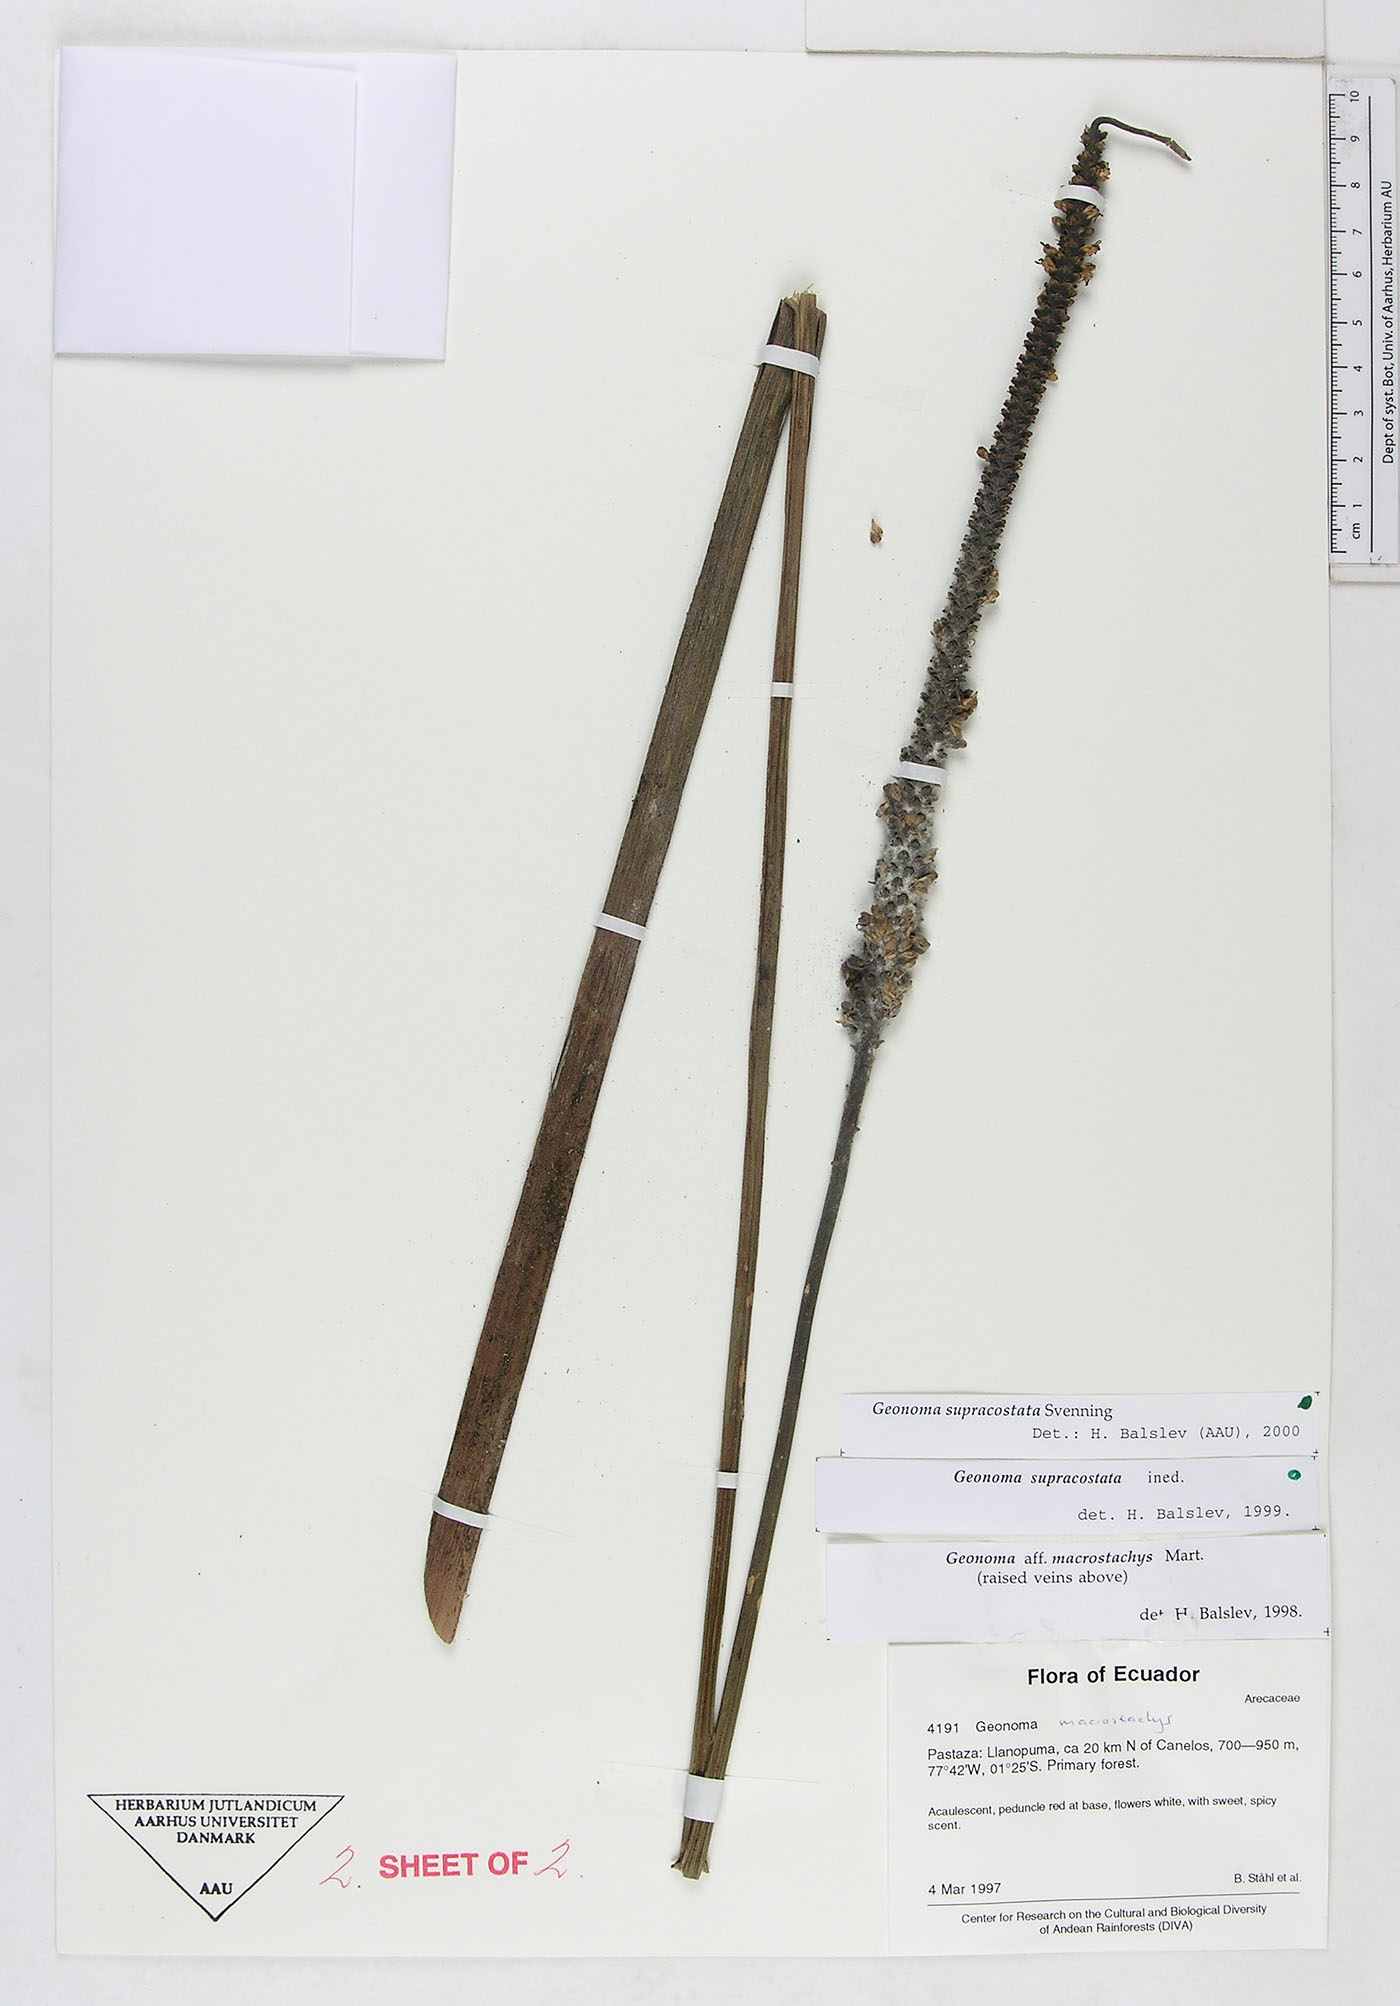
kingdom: Plantae
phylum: Tracheophyta
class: Liliopsida
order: Arecales
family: Arecaceae
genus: Geonoma
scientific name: Geonoma macrostachys
